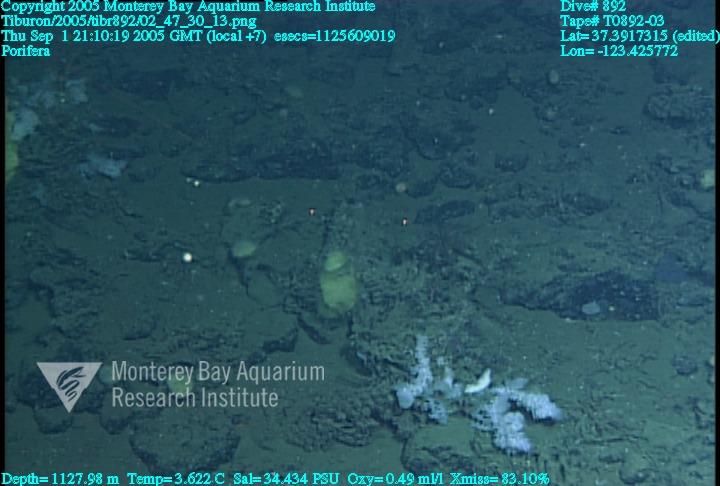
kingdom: Animalia
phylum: Porifera
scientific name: Porifera
